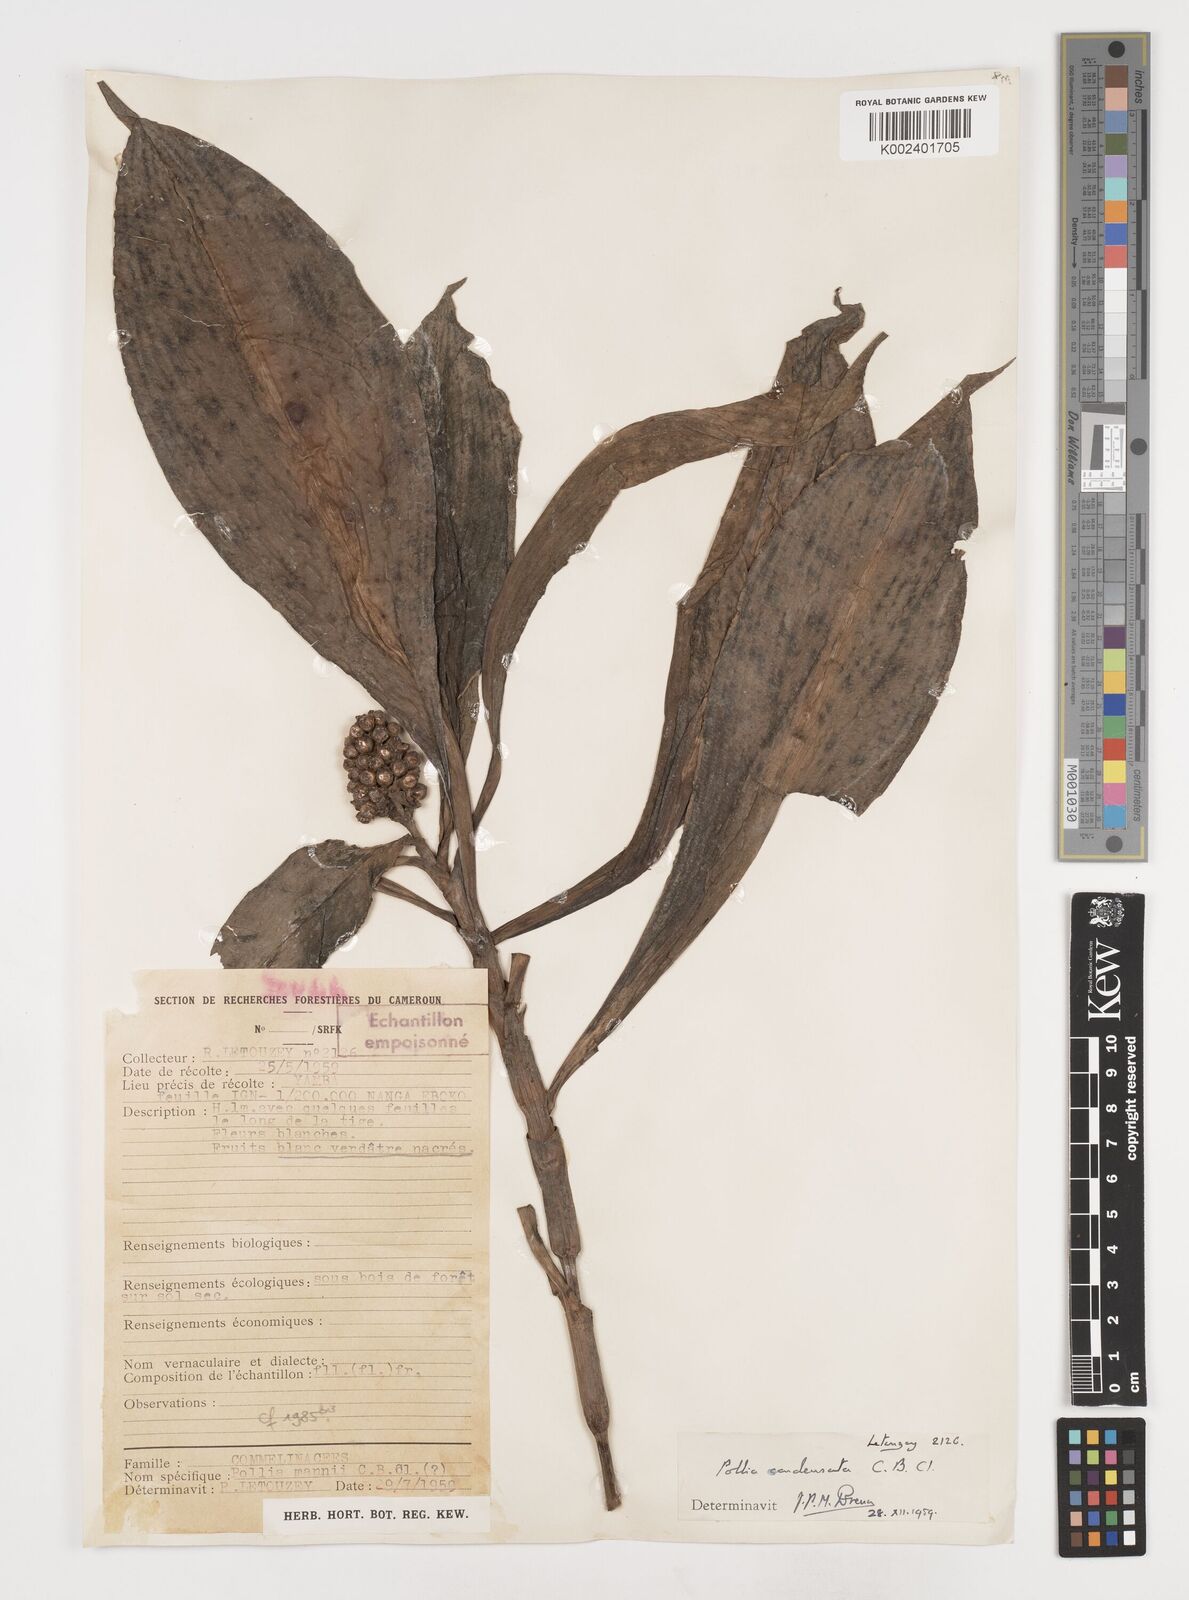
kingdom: Plantae
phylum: Tracheophyta
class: Liliopsida
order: Commelinales
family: Commelinaceae
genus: Pollia
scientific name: Pollia condensata
